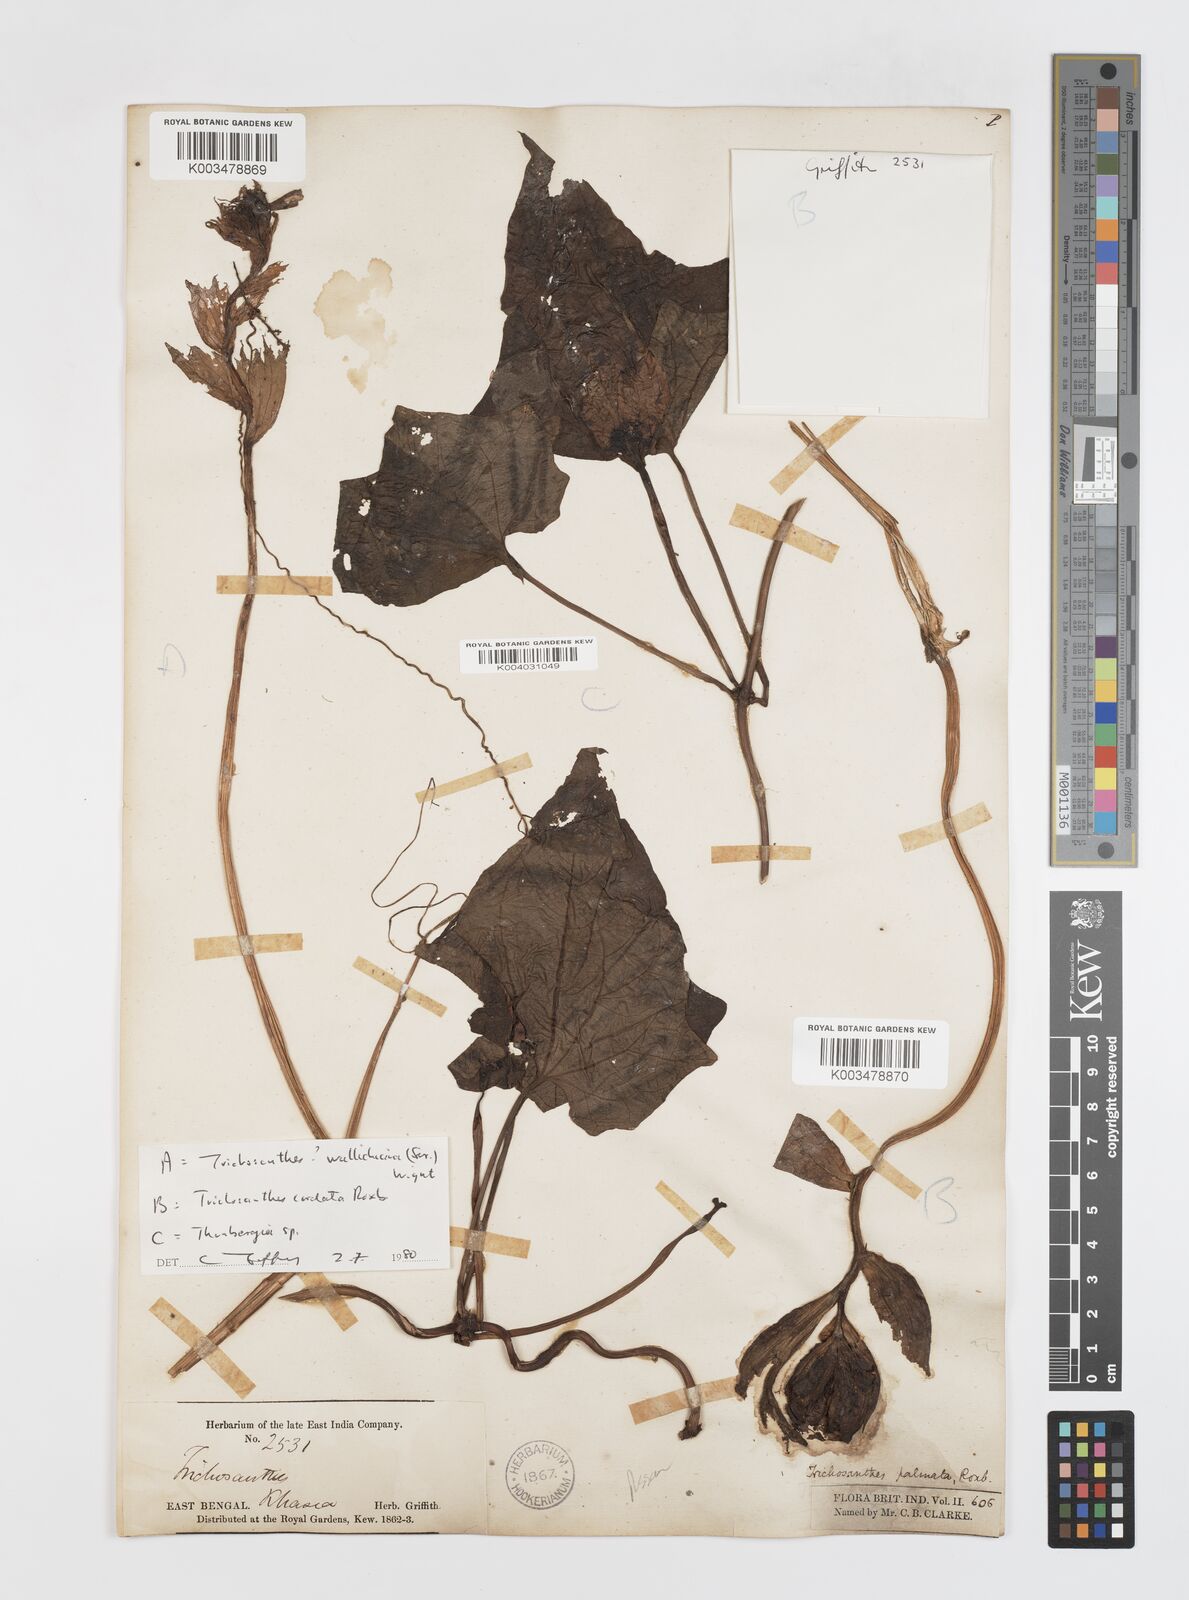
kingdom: Plantae
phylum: Tracheophyta
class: Magnoliopsida
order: Cucurbitales
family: Cucurbitaceae
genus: Trichosanthes
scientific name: Trichosanthes cordata
